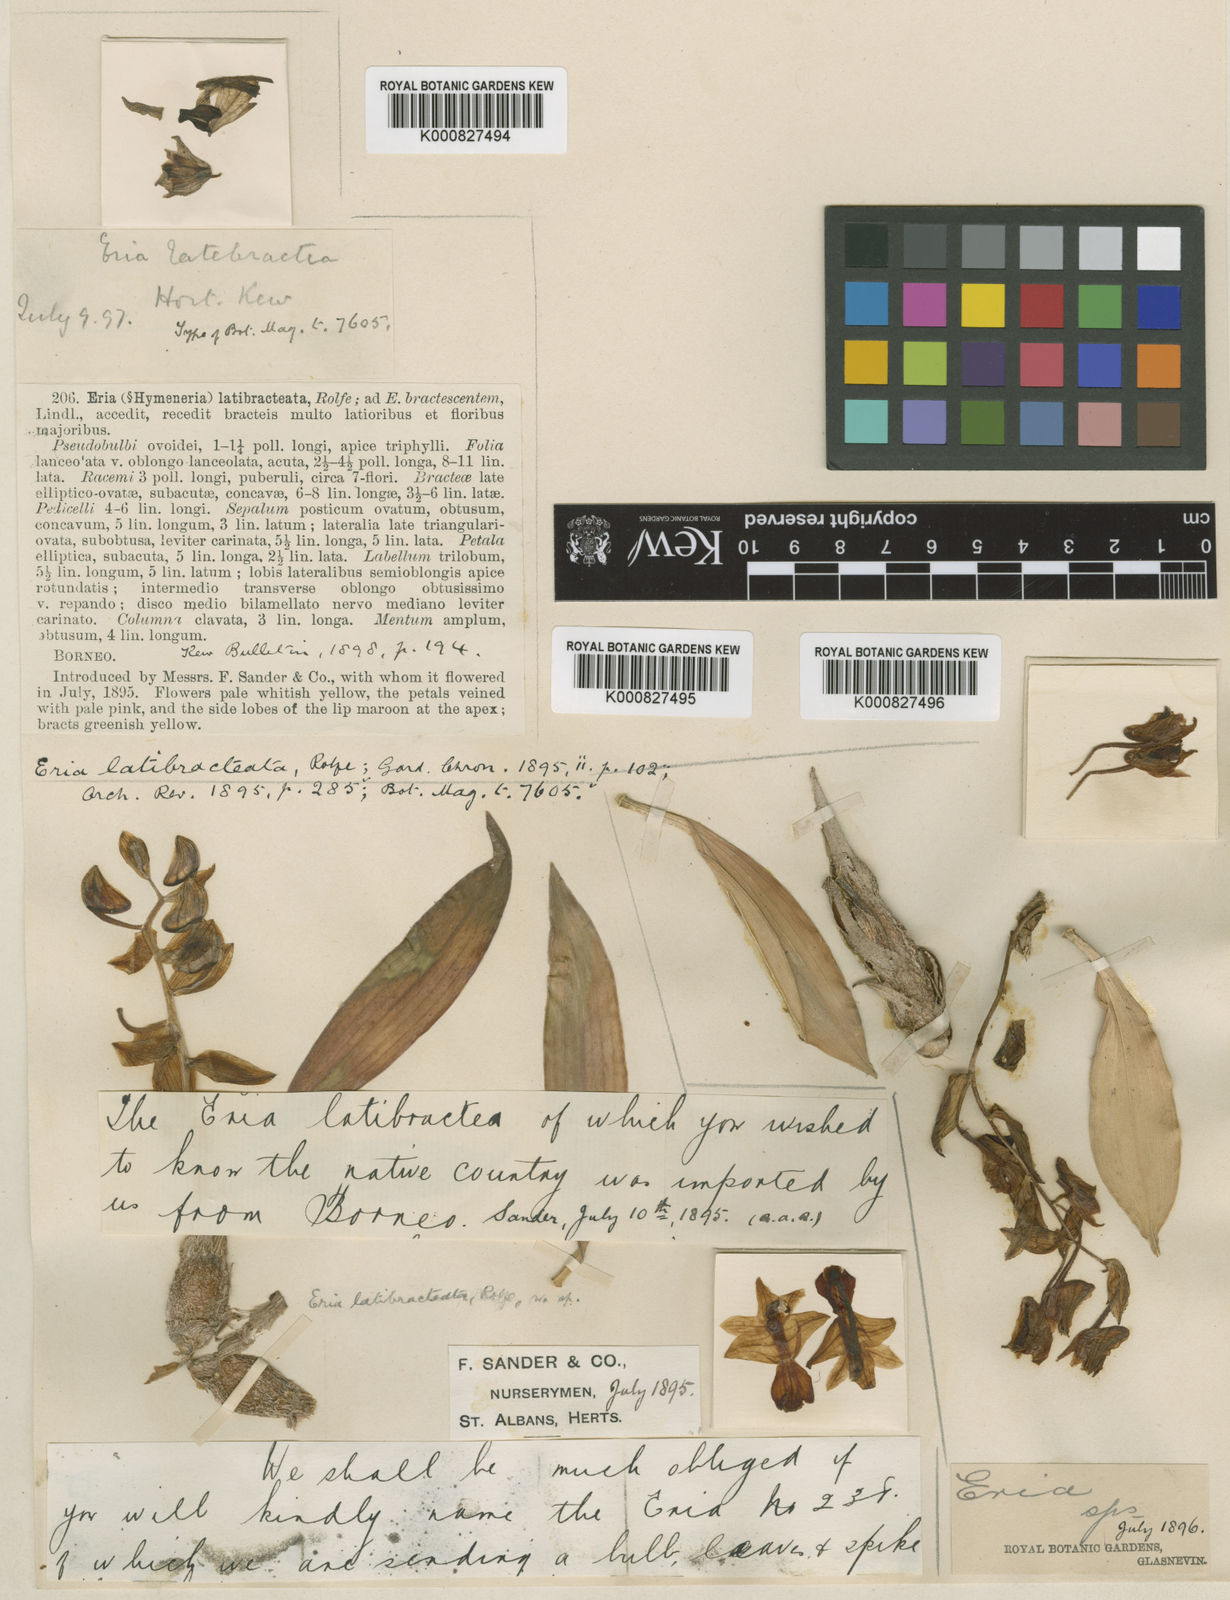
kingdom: Plantae
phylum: Tracheophyta
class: Liliopsida
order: Asparagales
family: Orchidaceae
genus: Eria
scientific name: Eria
